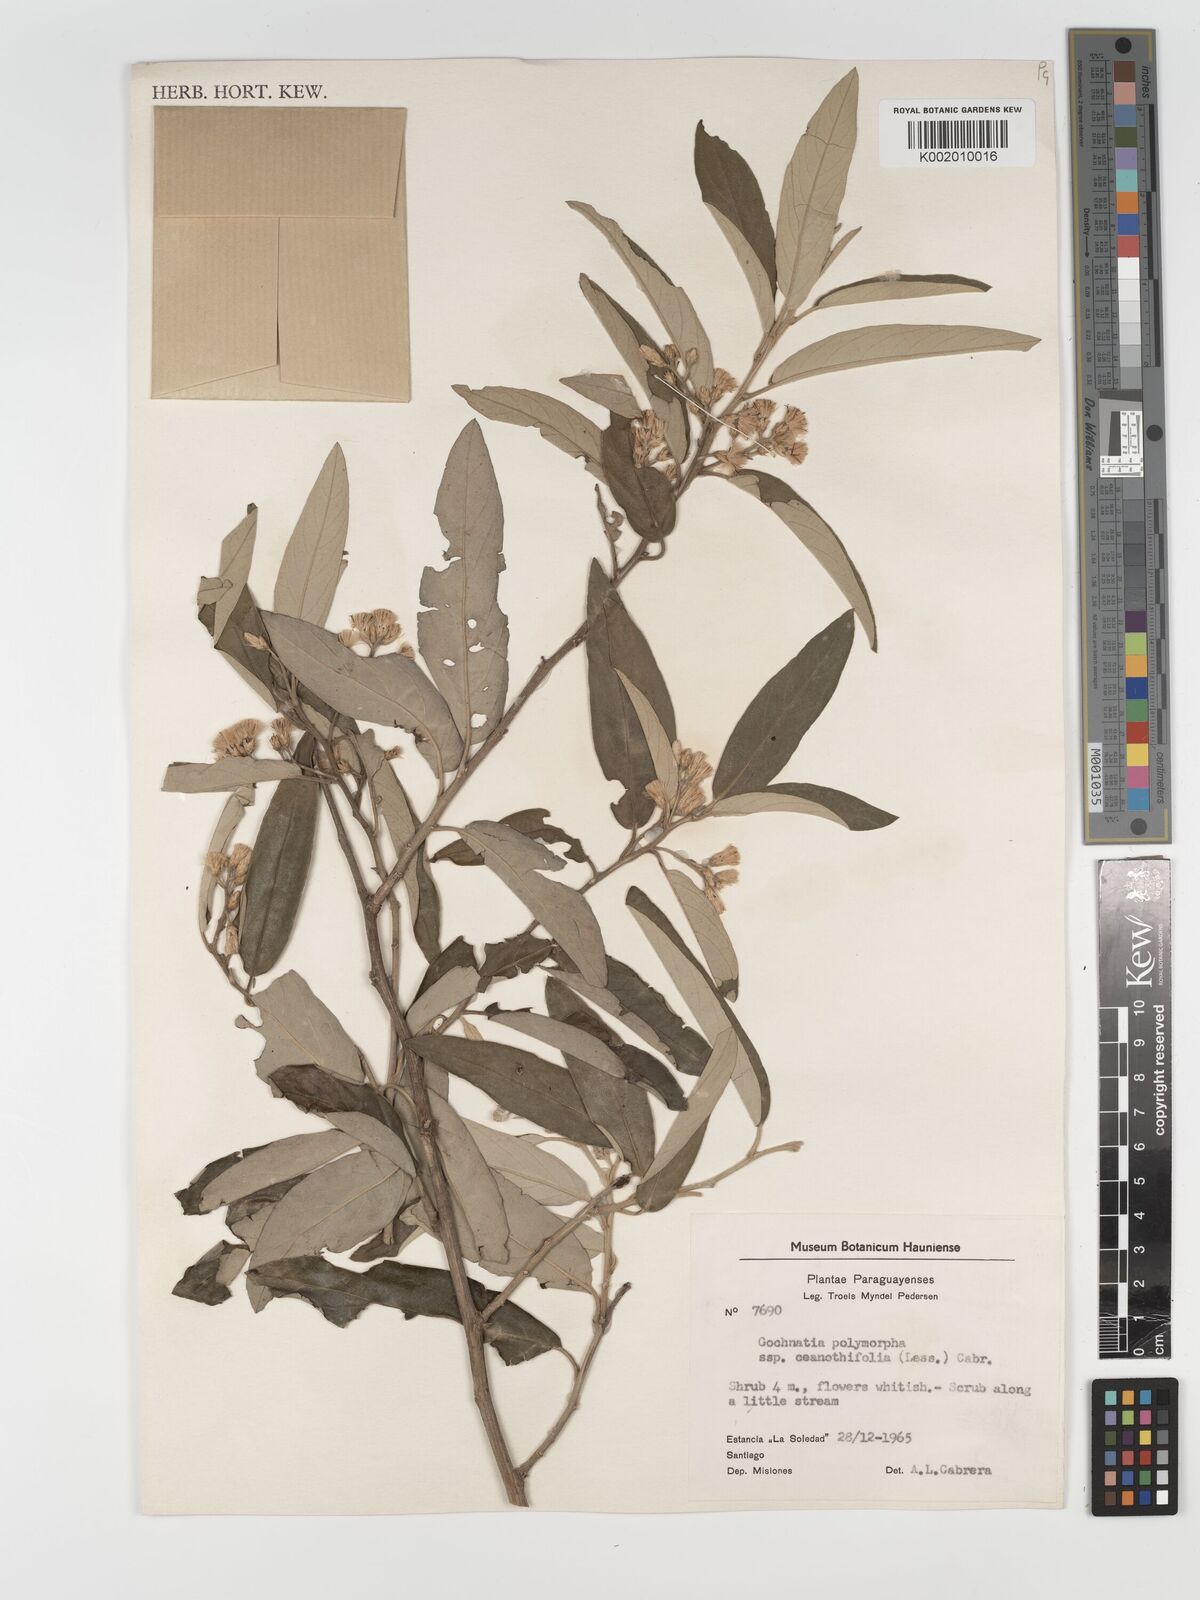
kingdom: Plantae
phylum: Tracheophyta
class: Magnoliopsida
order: Asterales
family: Asteraceae
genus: Moquiniastrum
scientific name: Moquiniastrum polymorphum
